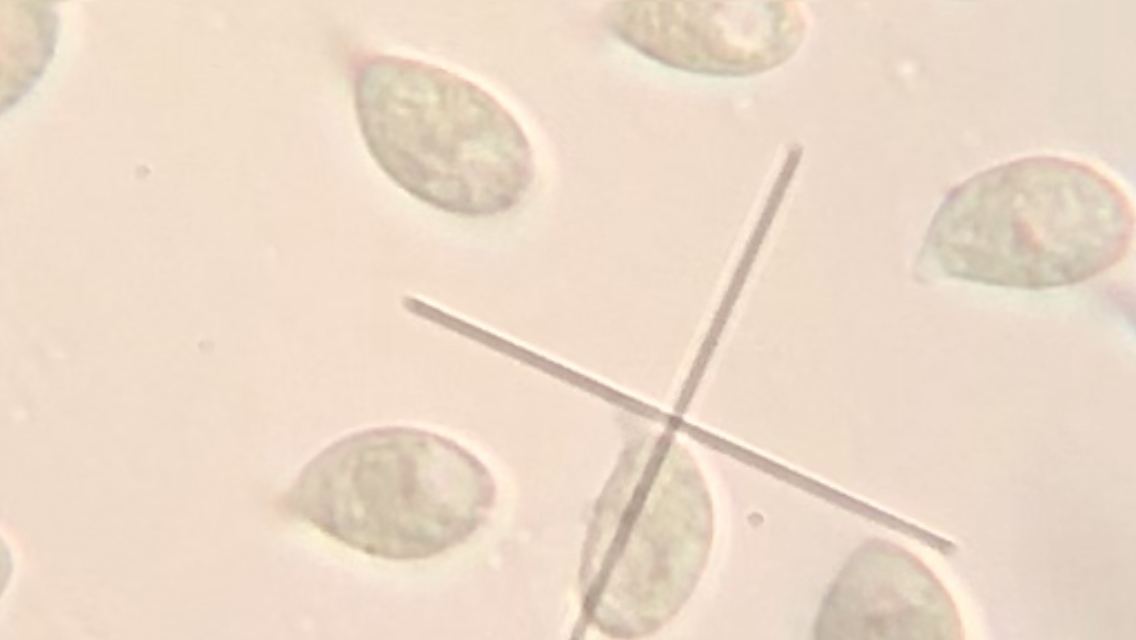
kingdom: Fungi
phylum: Basidiomycota
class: Agaricomycetes
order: Agaricales
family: Marasmiaceae
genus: Marasmius
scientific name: Marasmius oreades
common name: elledans-bruskhat
